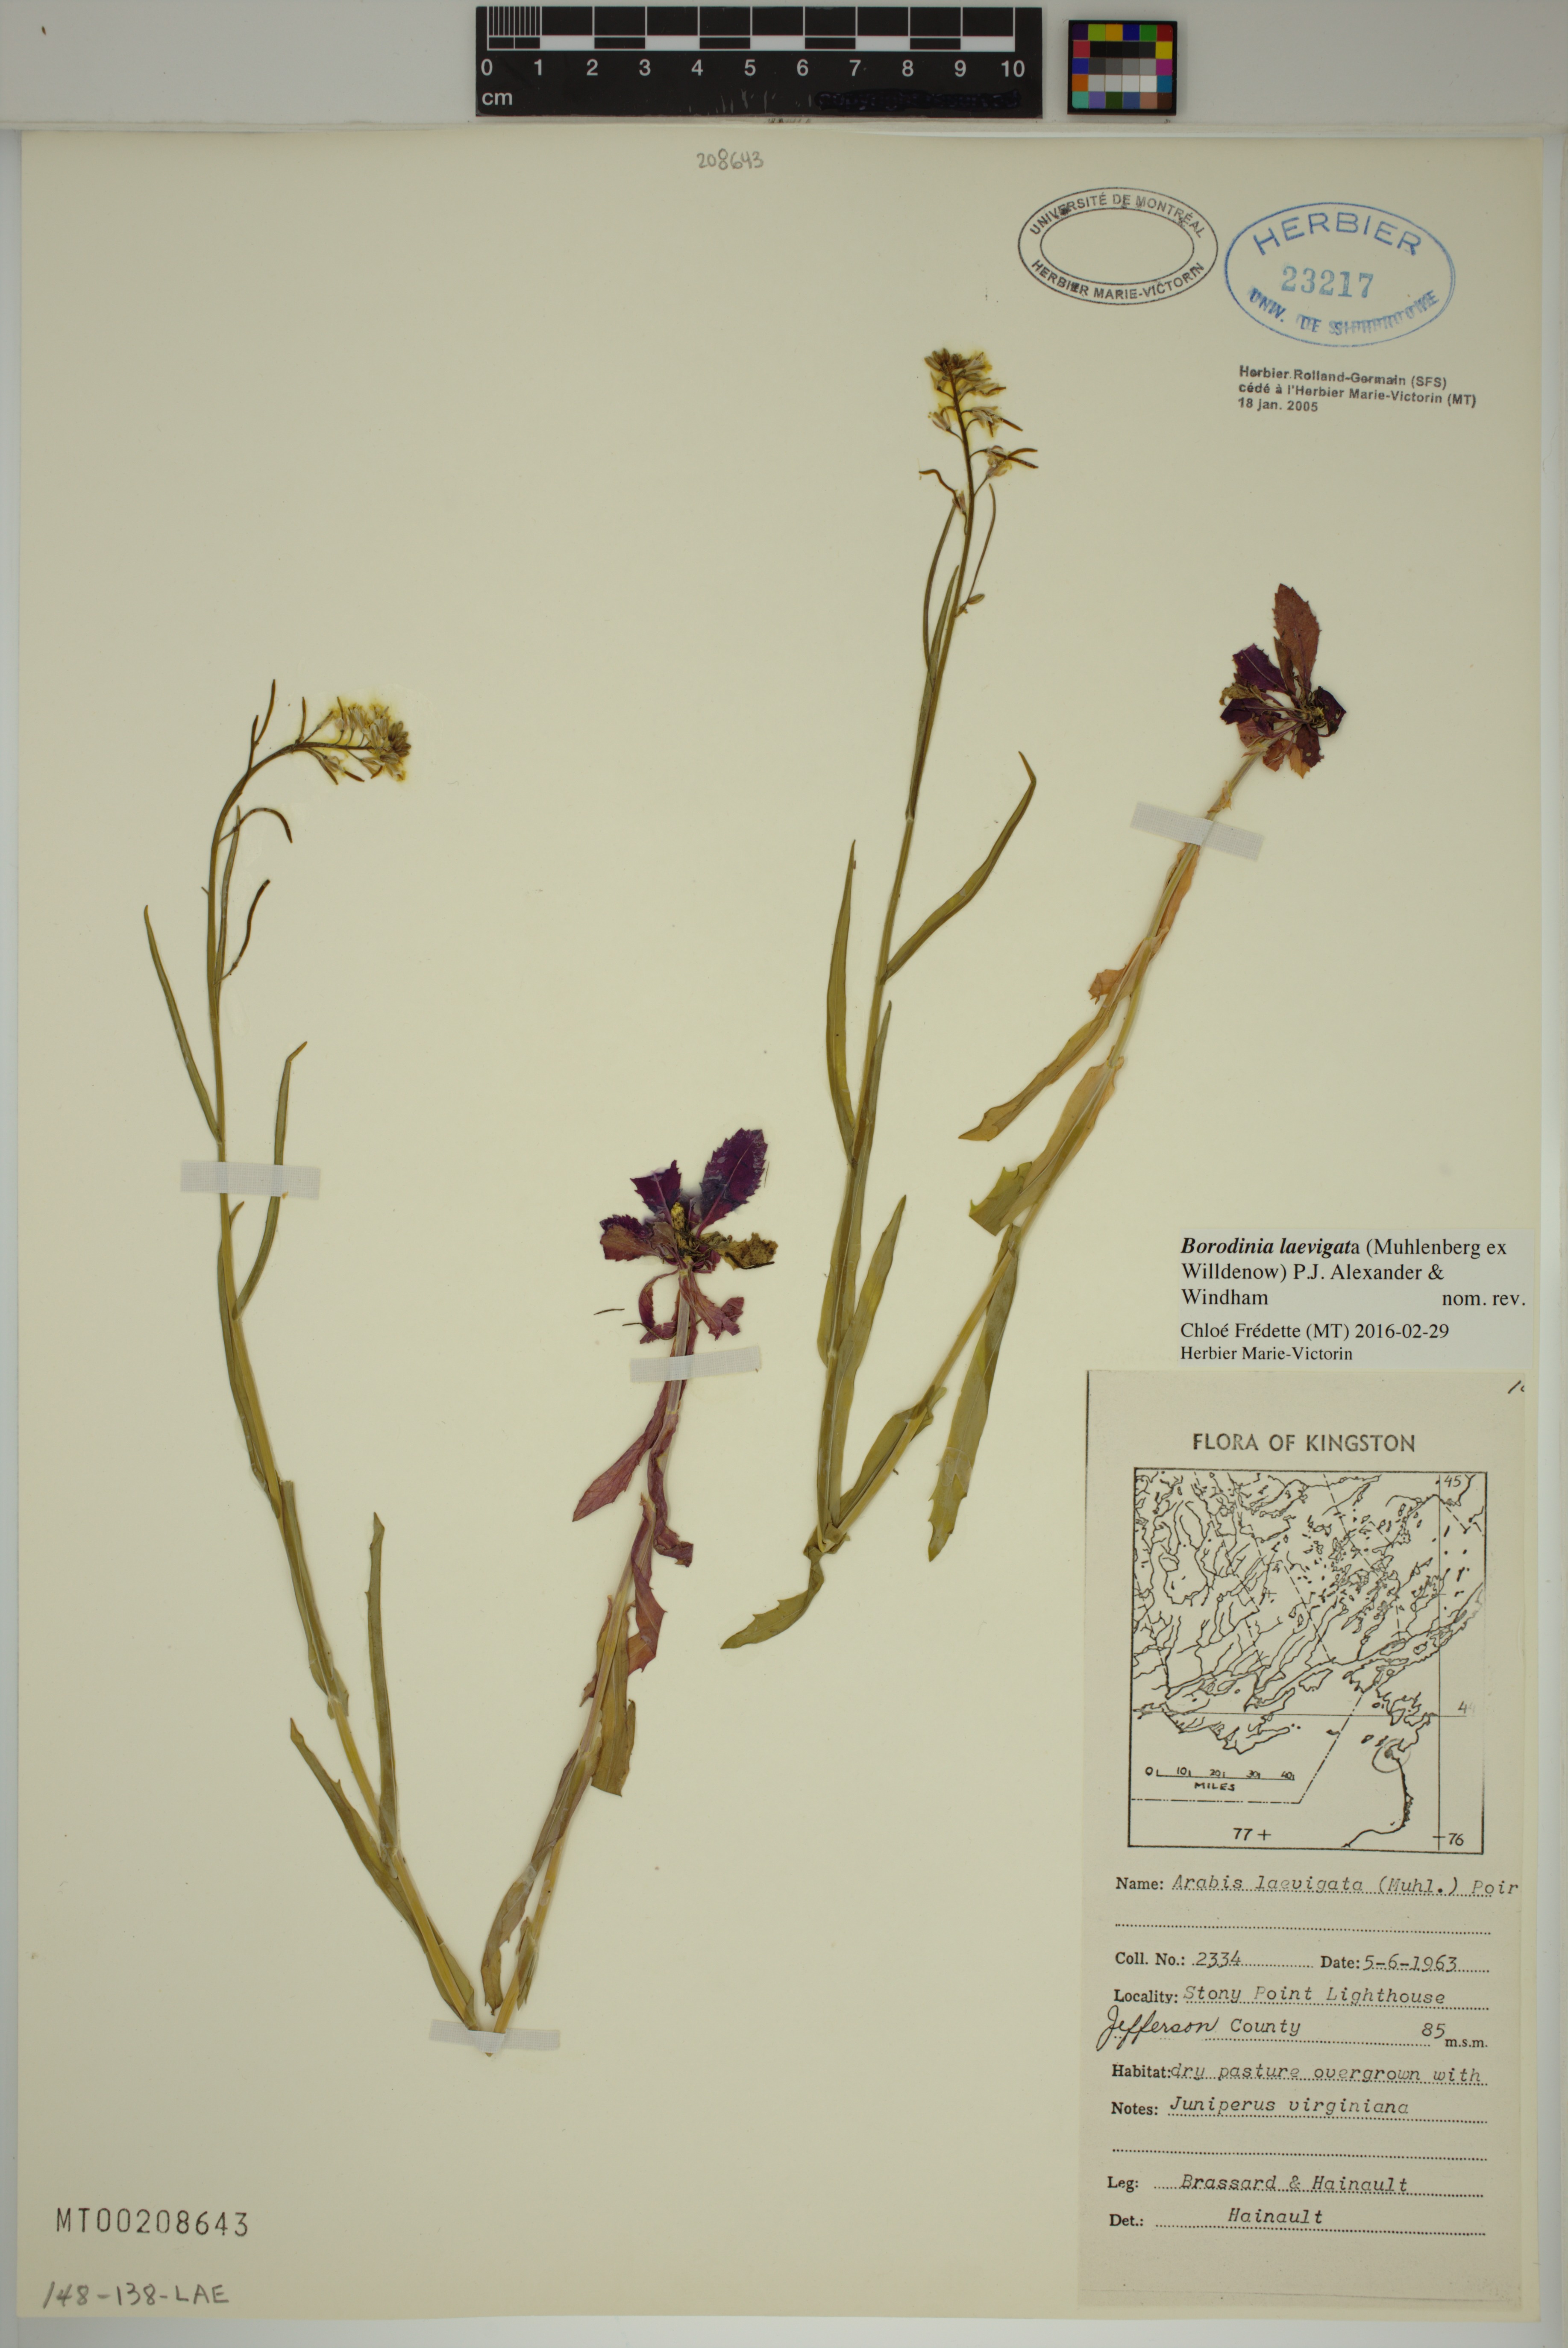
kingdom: Plantae
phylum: Tracheophyta
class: Magnoliopsida
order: Brassicales
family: Brassicaceae
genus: Borodinia
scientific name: Borodinia laevigata
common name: Smooth rockcress
